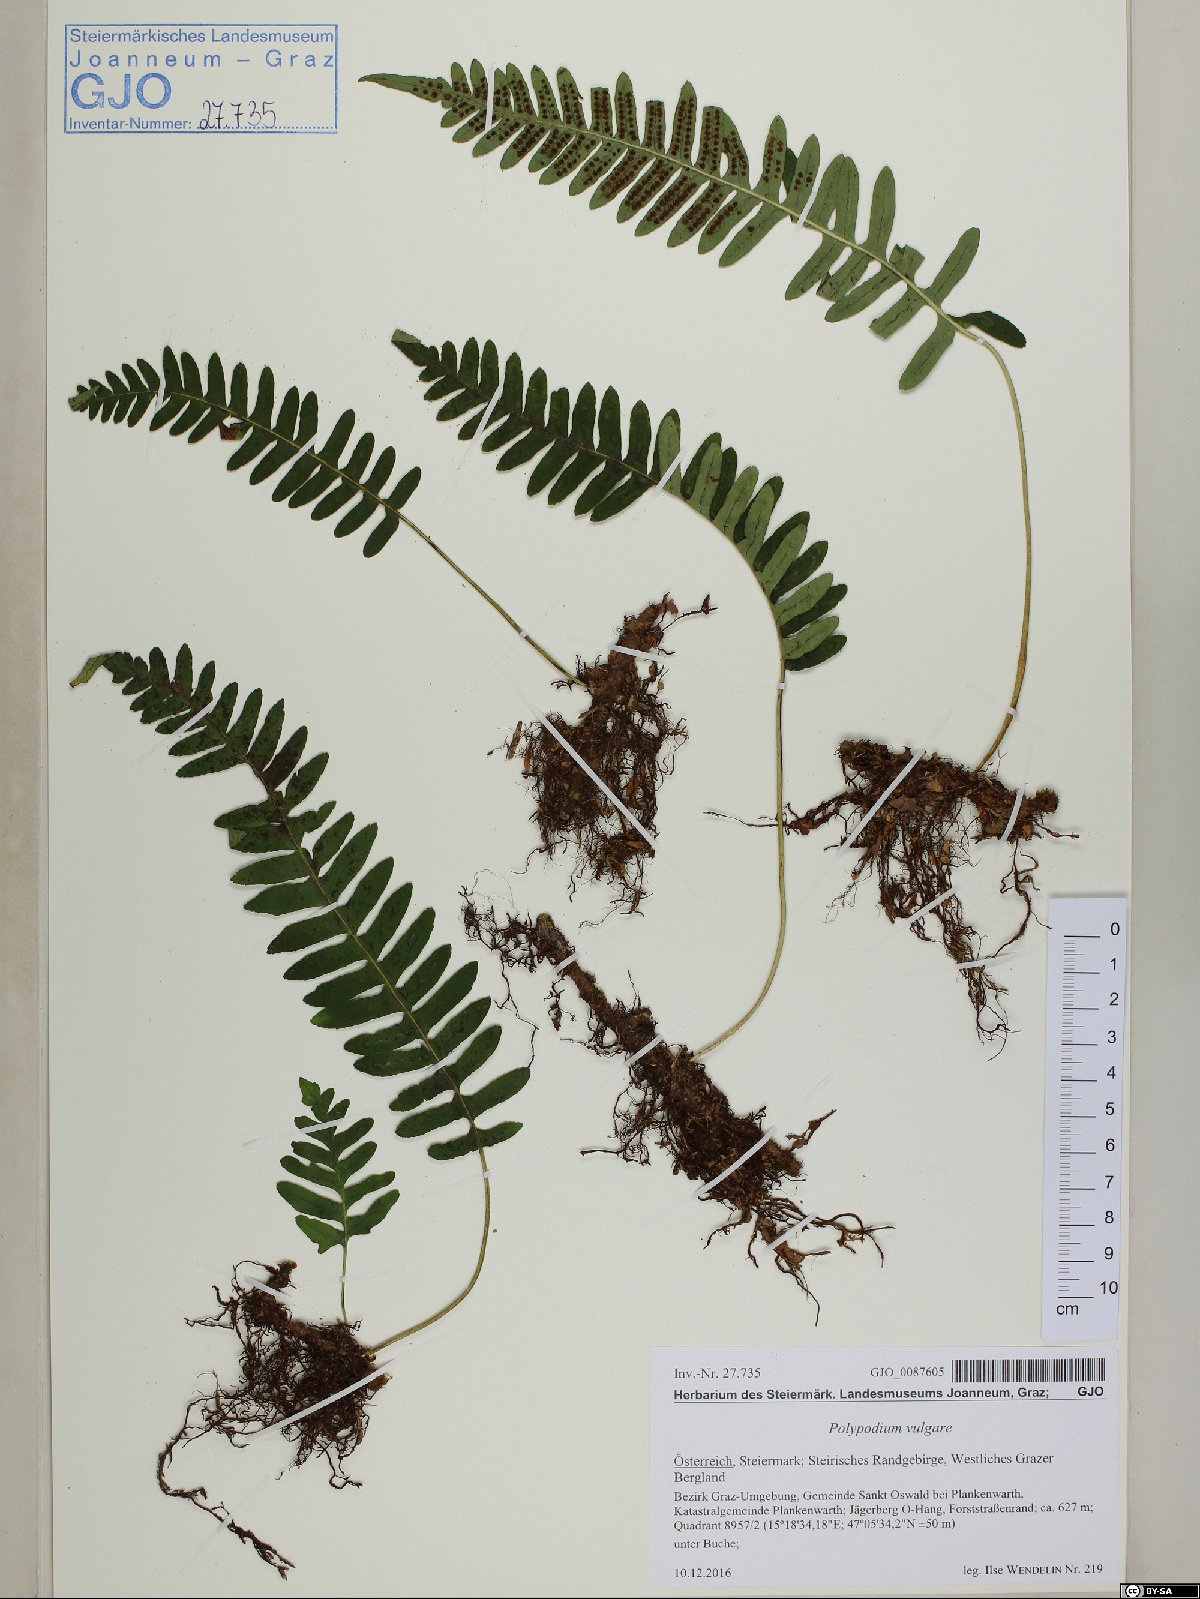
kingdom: Plantae
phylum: Tracheophyta
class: Polypodiopsida
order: Polypodiales
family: Polypodiaceae
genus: Polypodium
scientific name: Polypodium vulgare
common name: Common polypody
